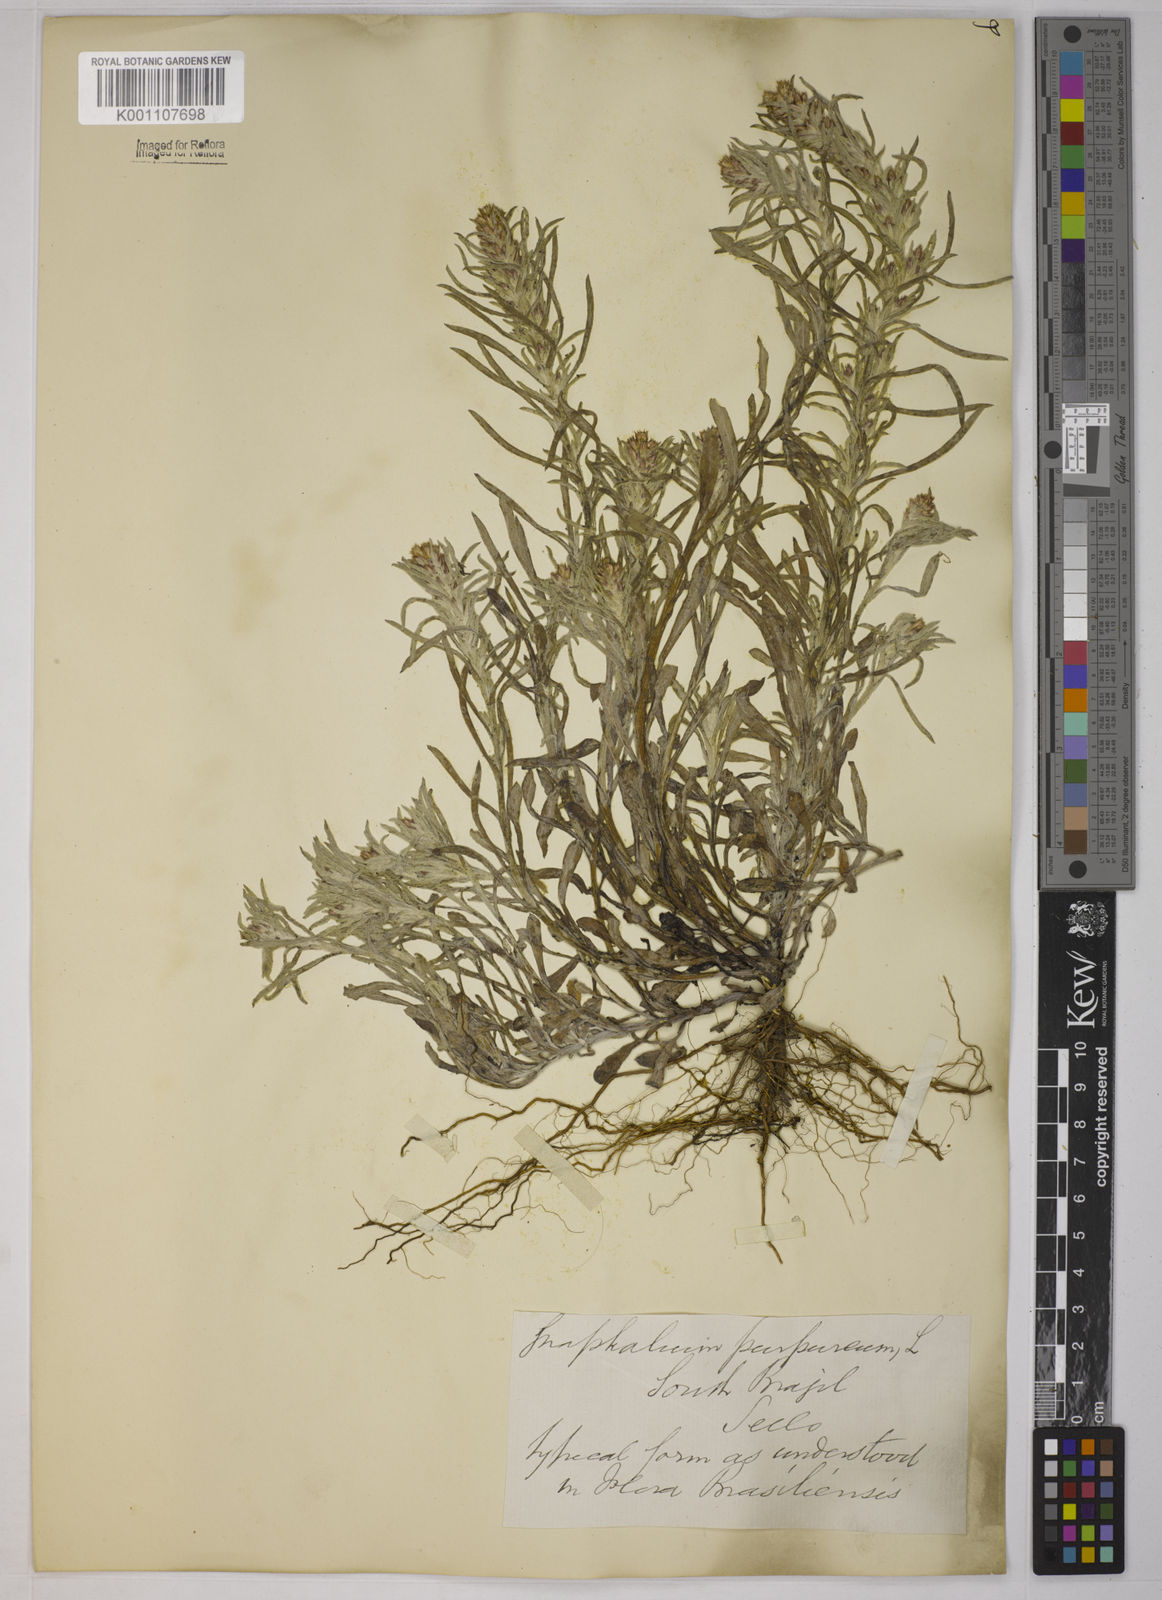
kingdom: Plantae
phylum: Tracheophyta
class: Magnoliopsida
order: Asterales
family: Asteraceae
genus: Gamochaeta
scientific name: Gamochaeta purpurea
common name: Purple cudweed
